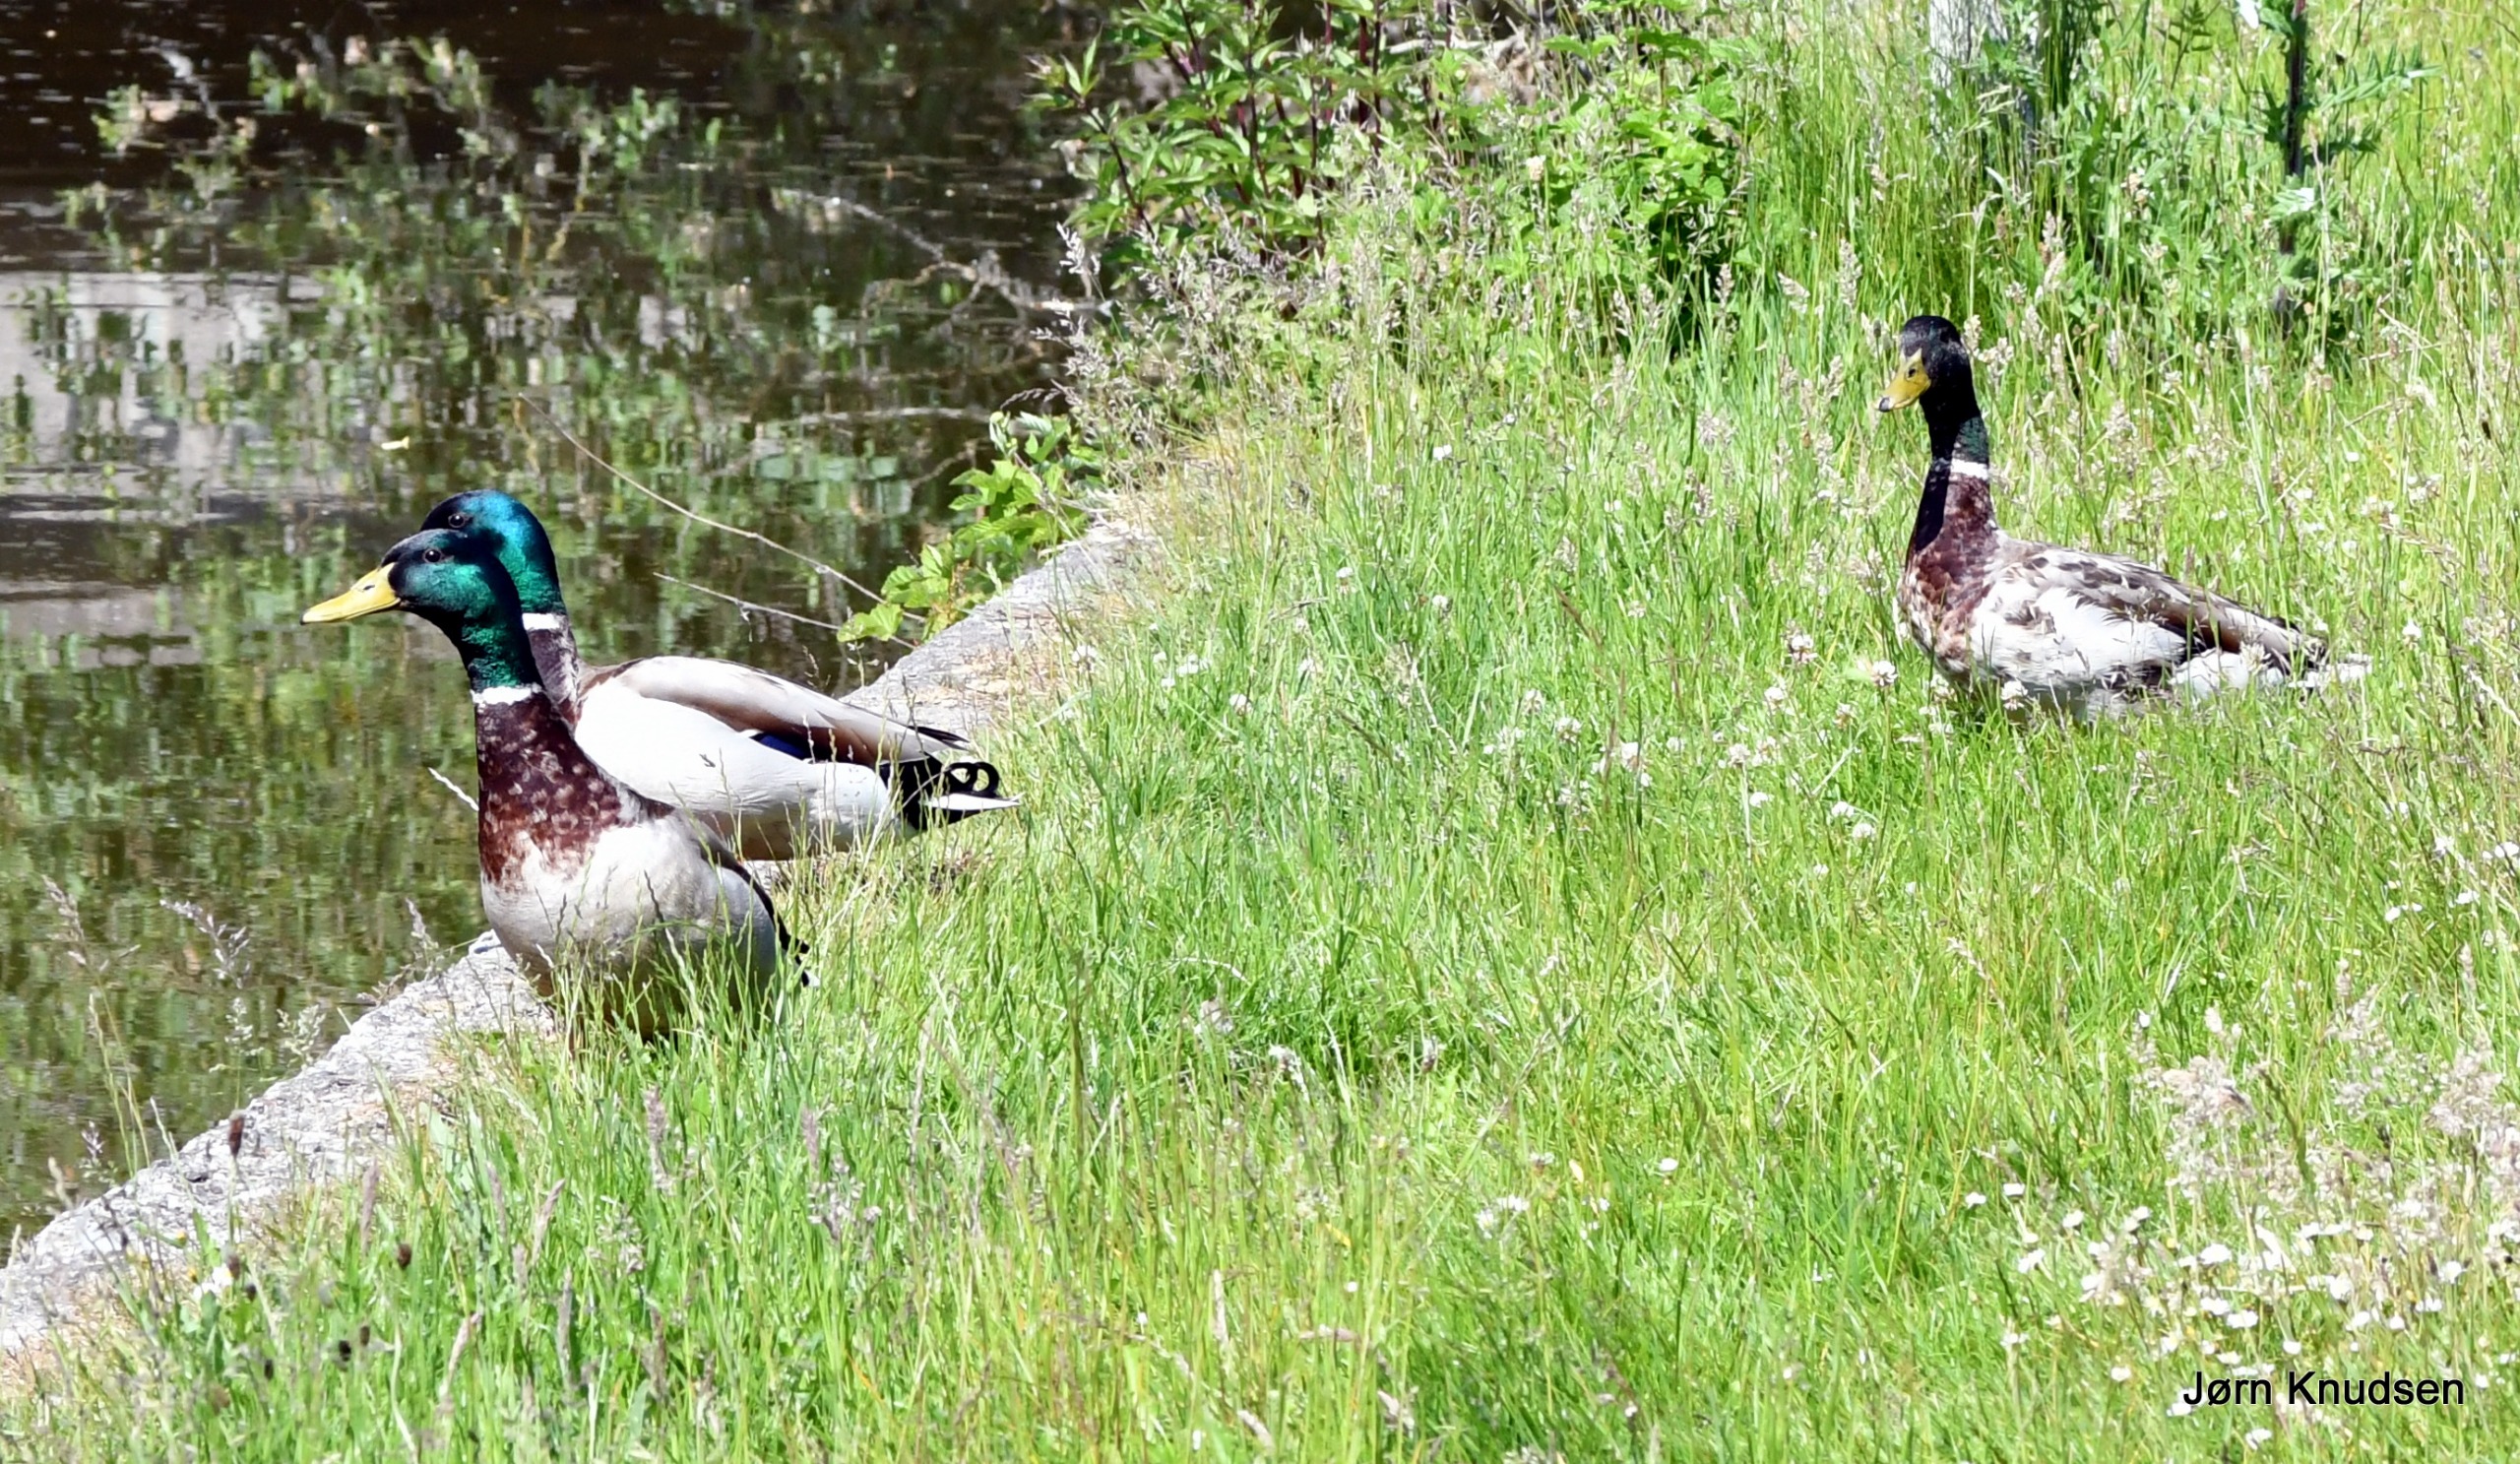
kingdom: Animalia
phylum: Chordata
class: Aves
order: Anseriformes
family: Anatidae
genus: Anas
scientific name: Anas platyrhynchos
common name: Gråand
